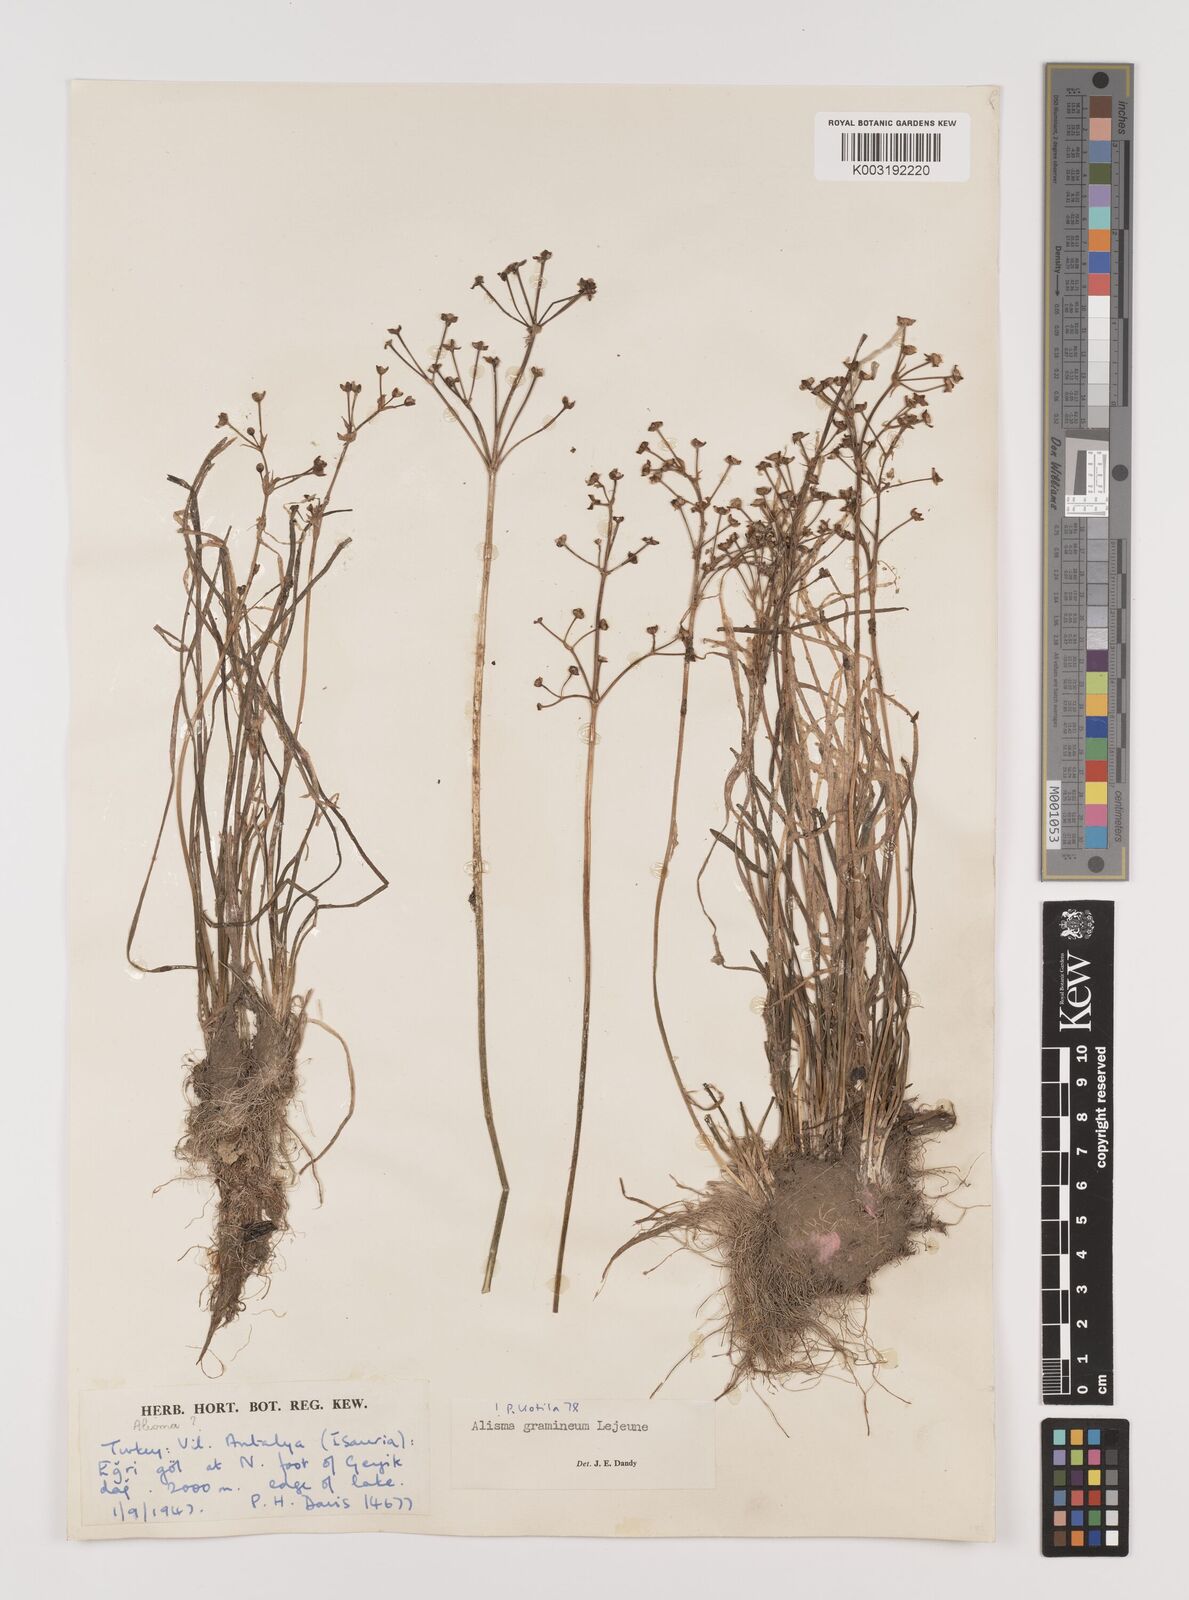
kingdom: Plantae
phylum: Tracheophyta
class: Liliopsida
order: Alismatales
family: Alismataceae
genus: Alisma
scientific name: Alisma gramineum
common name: Ribbon-leaved water-plantain
